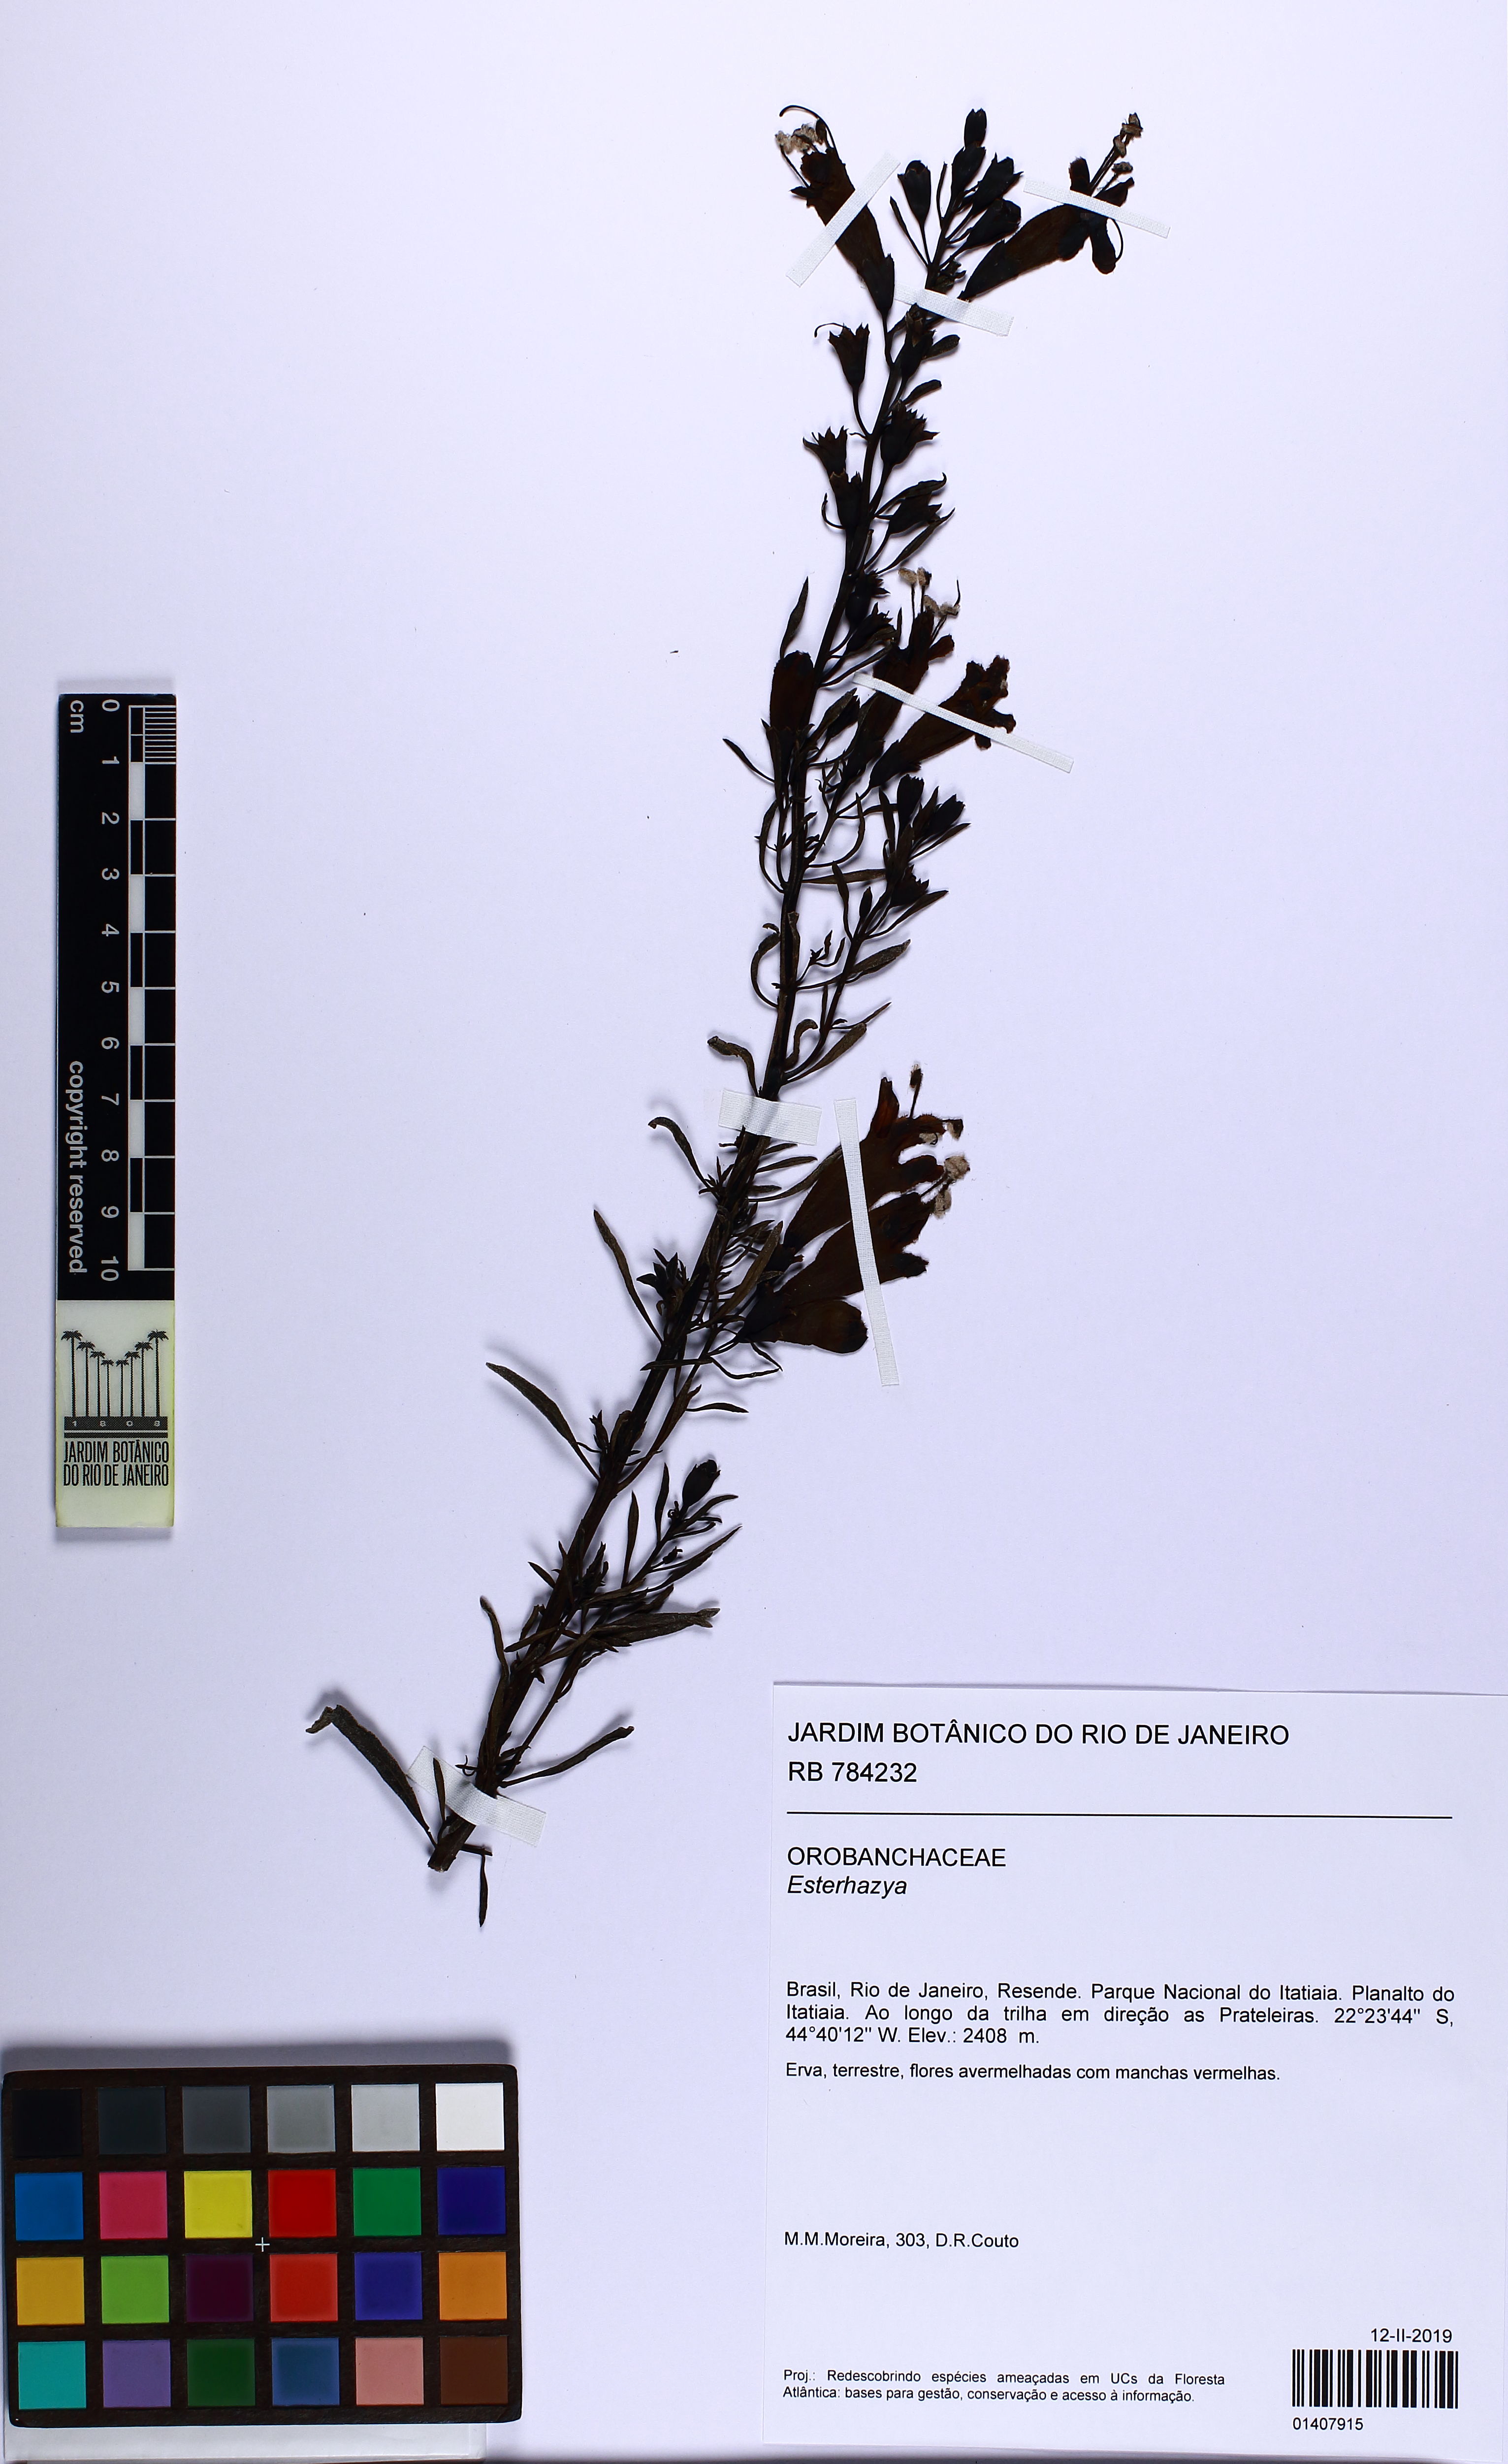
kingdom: Plantae
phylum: Tracheophyta
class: Magnoliopsida
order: Lamiales
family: Orobanchaceae
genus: Esterhazya
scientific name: Esterhazya
